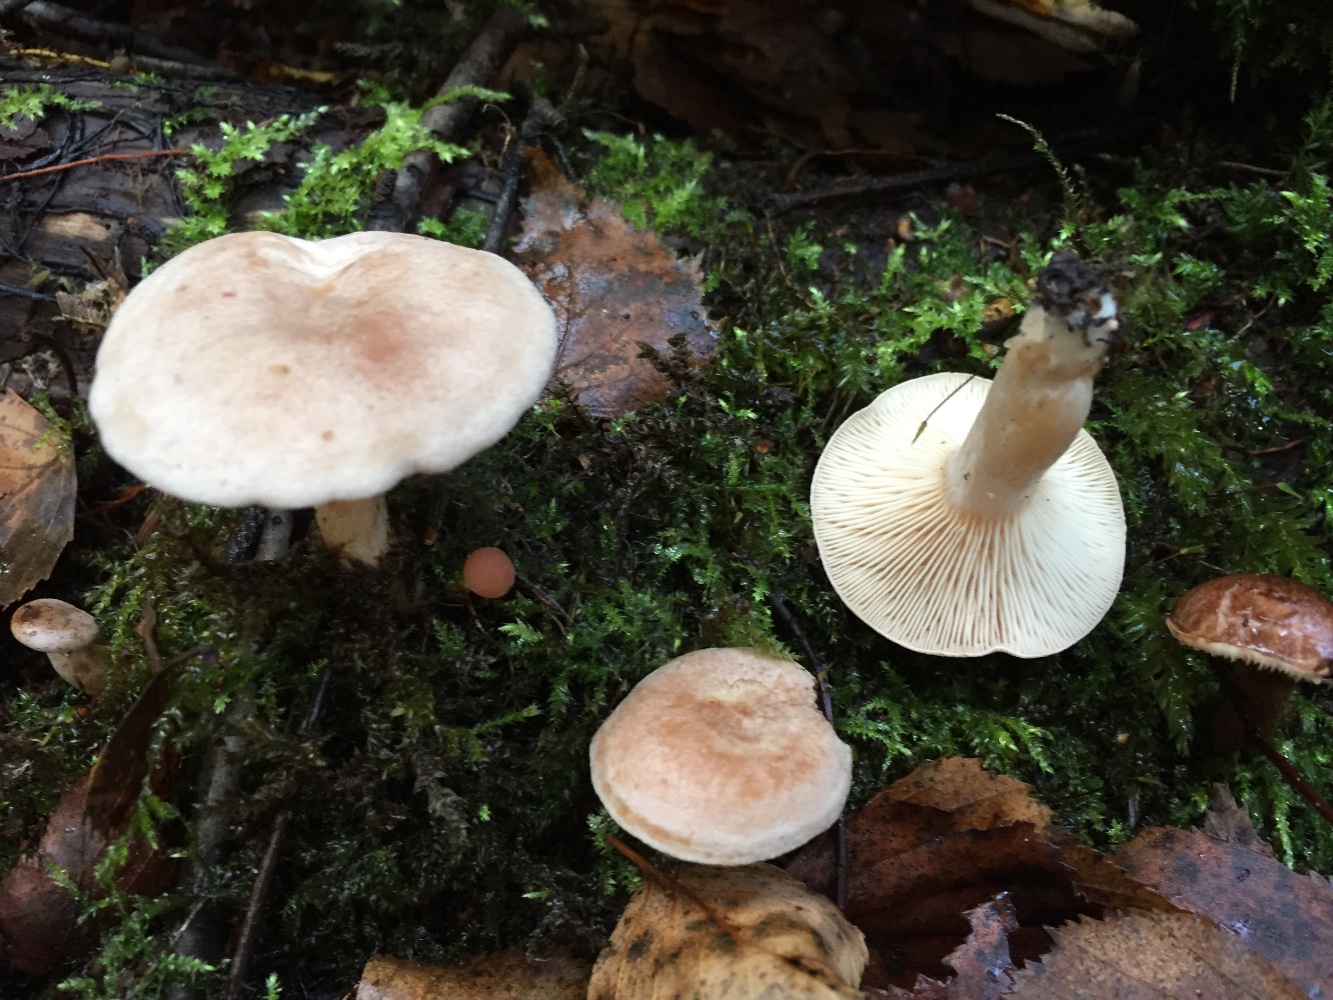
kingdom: Fungi
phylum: Basidiomycota
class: Agaricomycetes
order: Russulales
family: Russulaceae
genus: Lactarius
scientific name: Lactarius glyciosmus
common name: kokos-mælkehat
